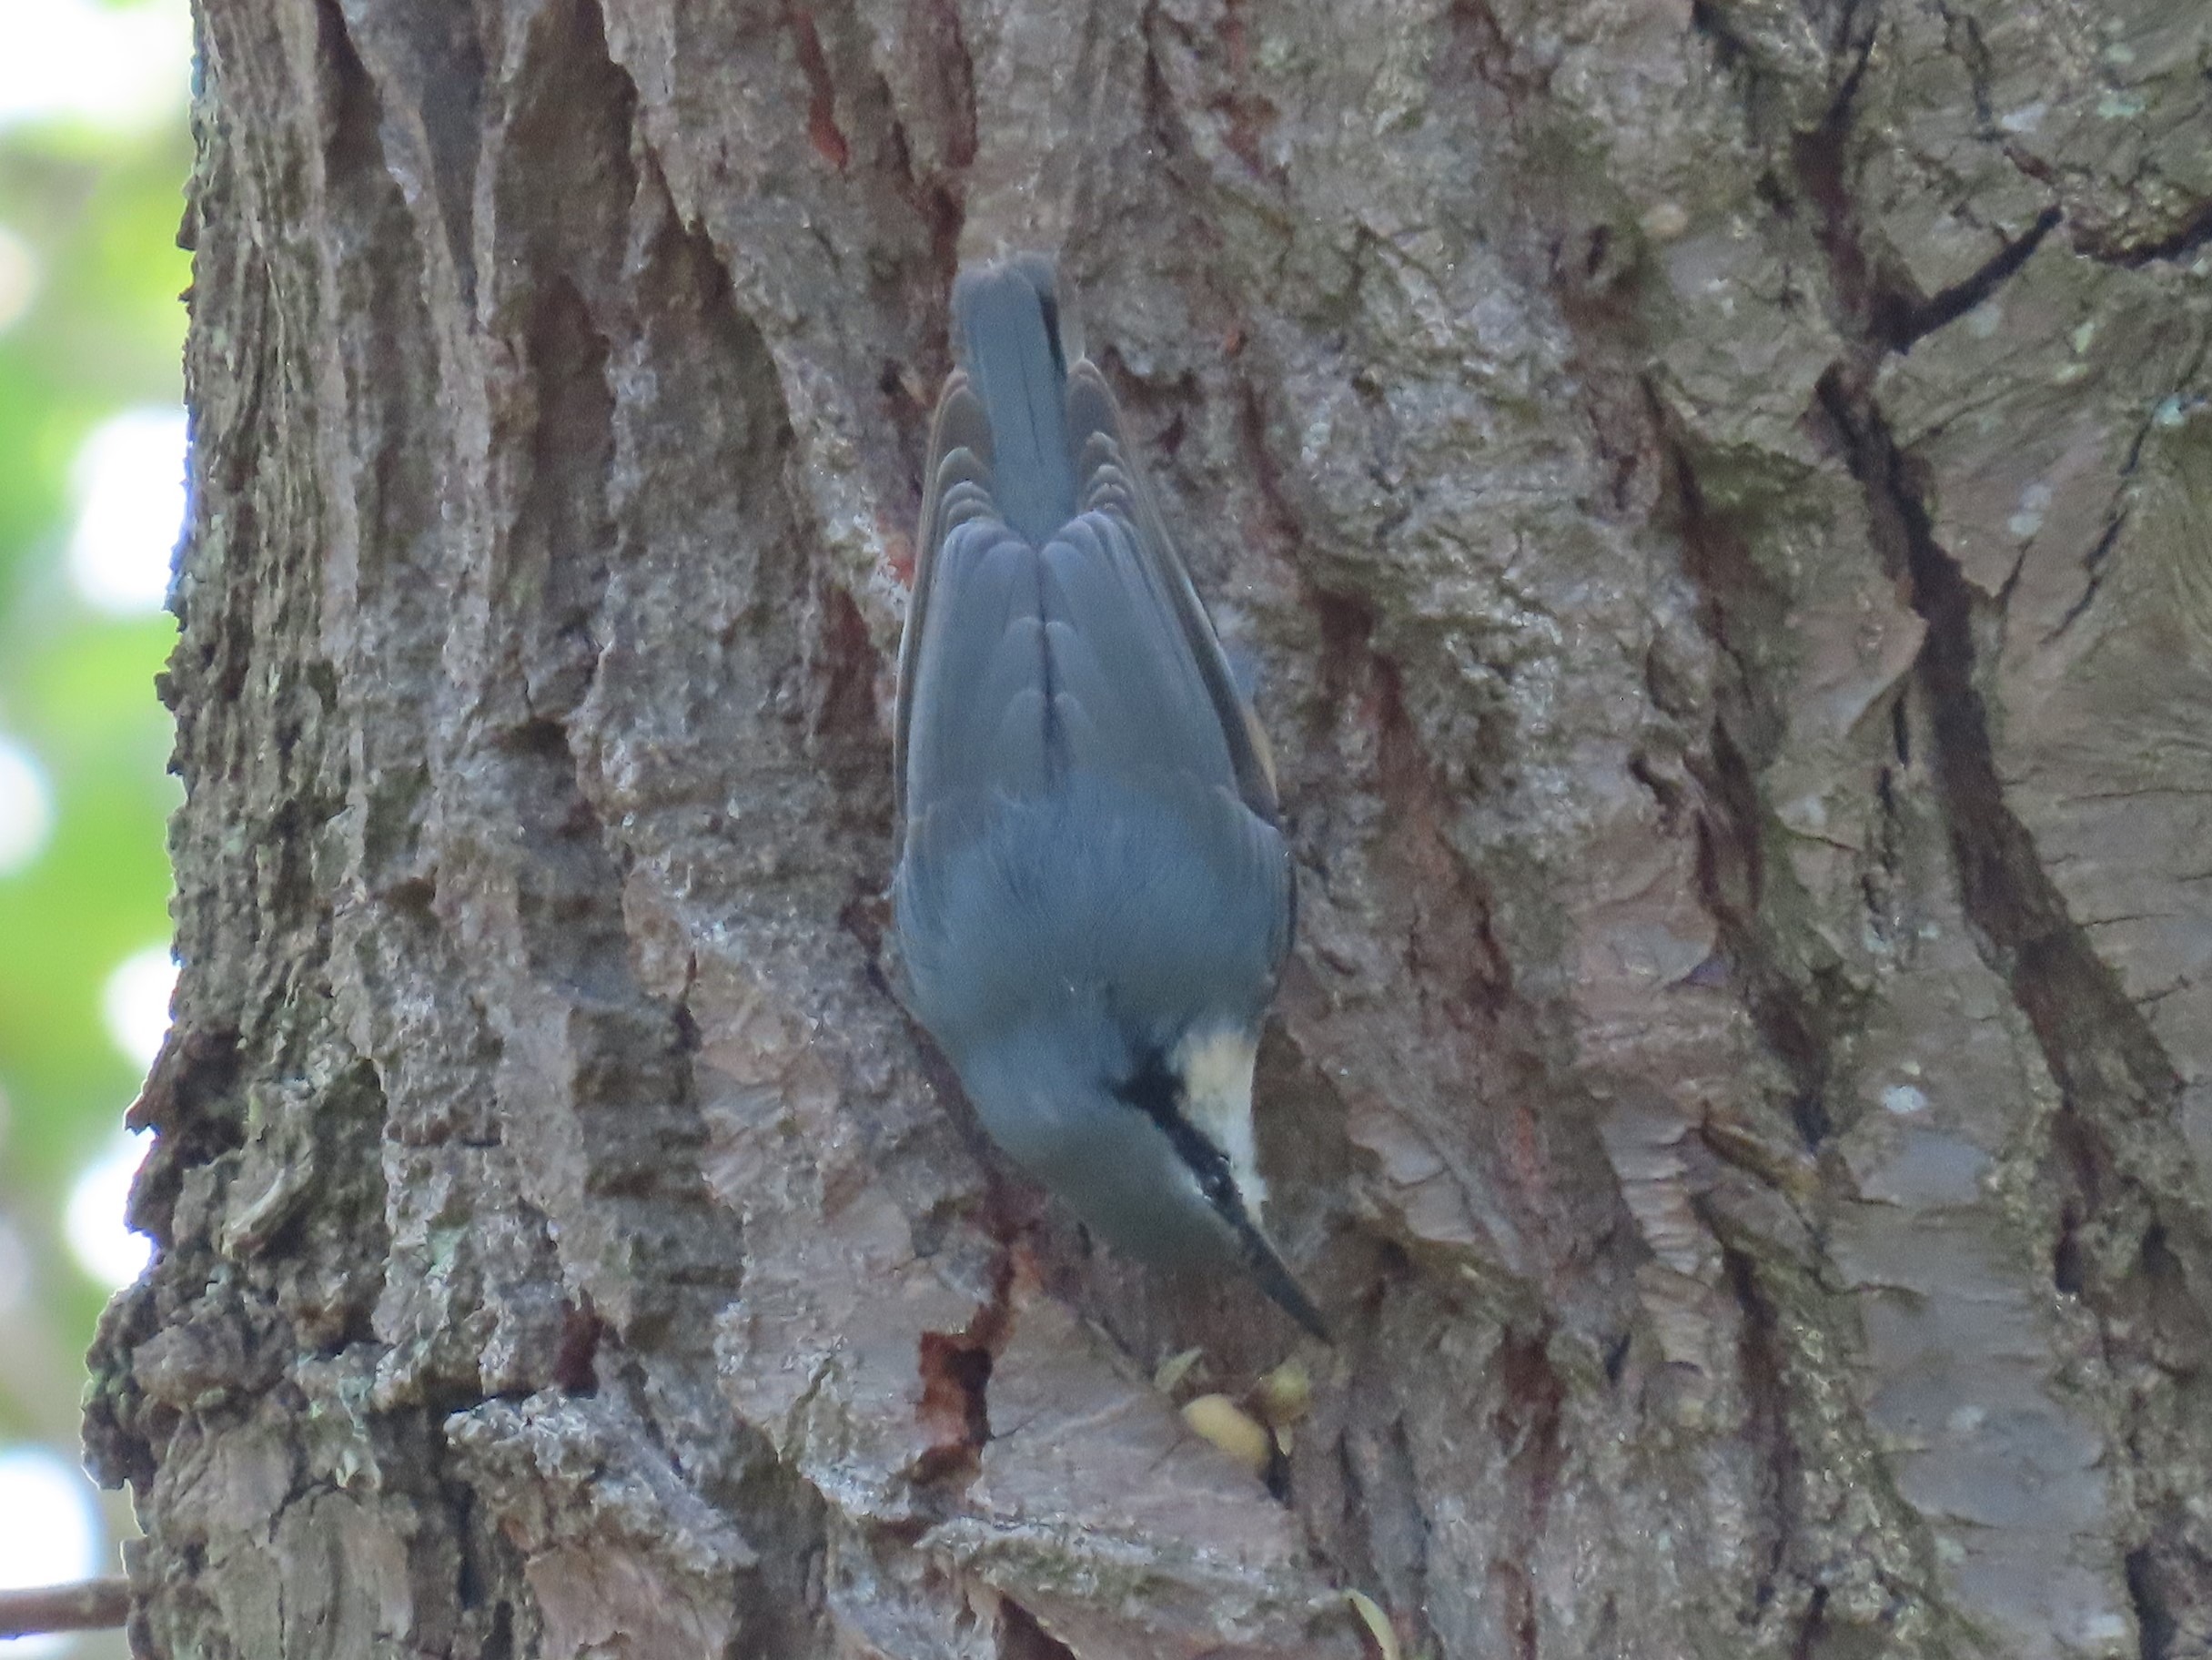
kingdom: Animalia
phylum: Chordata
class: Aves
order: Passeriformes
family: Sittidae
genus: Sitta
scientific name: Sitta europaea
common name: Spætmejse
